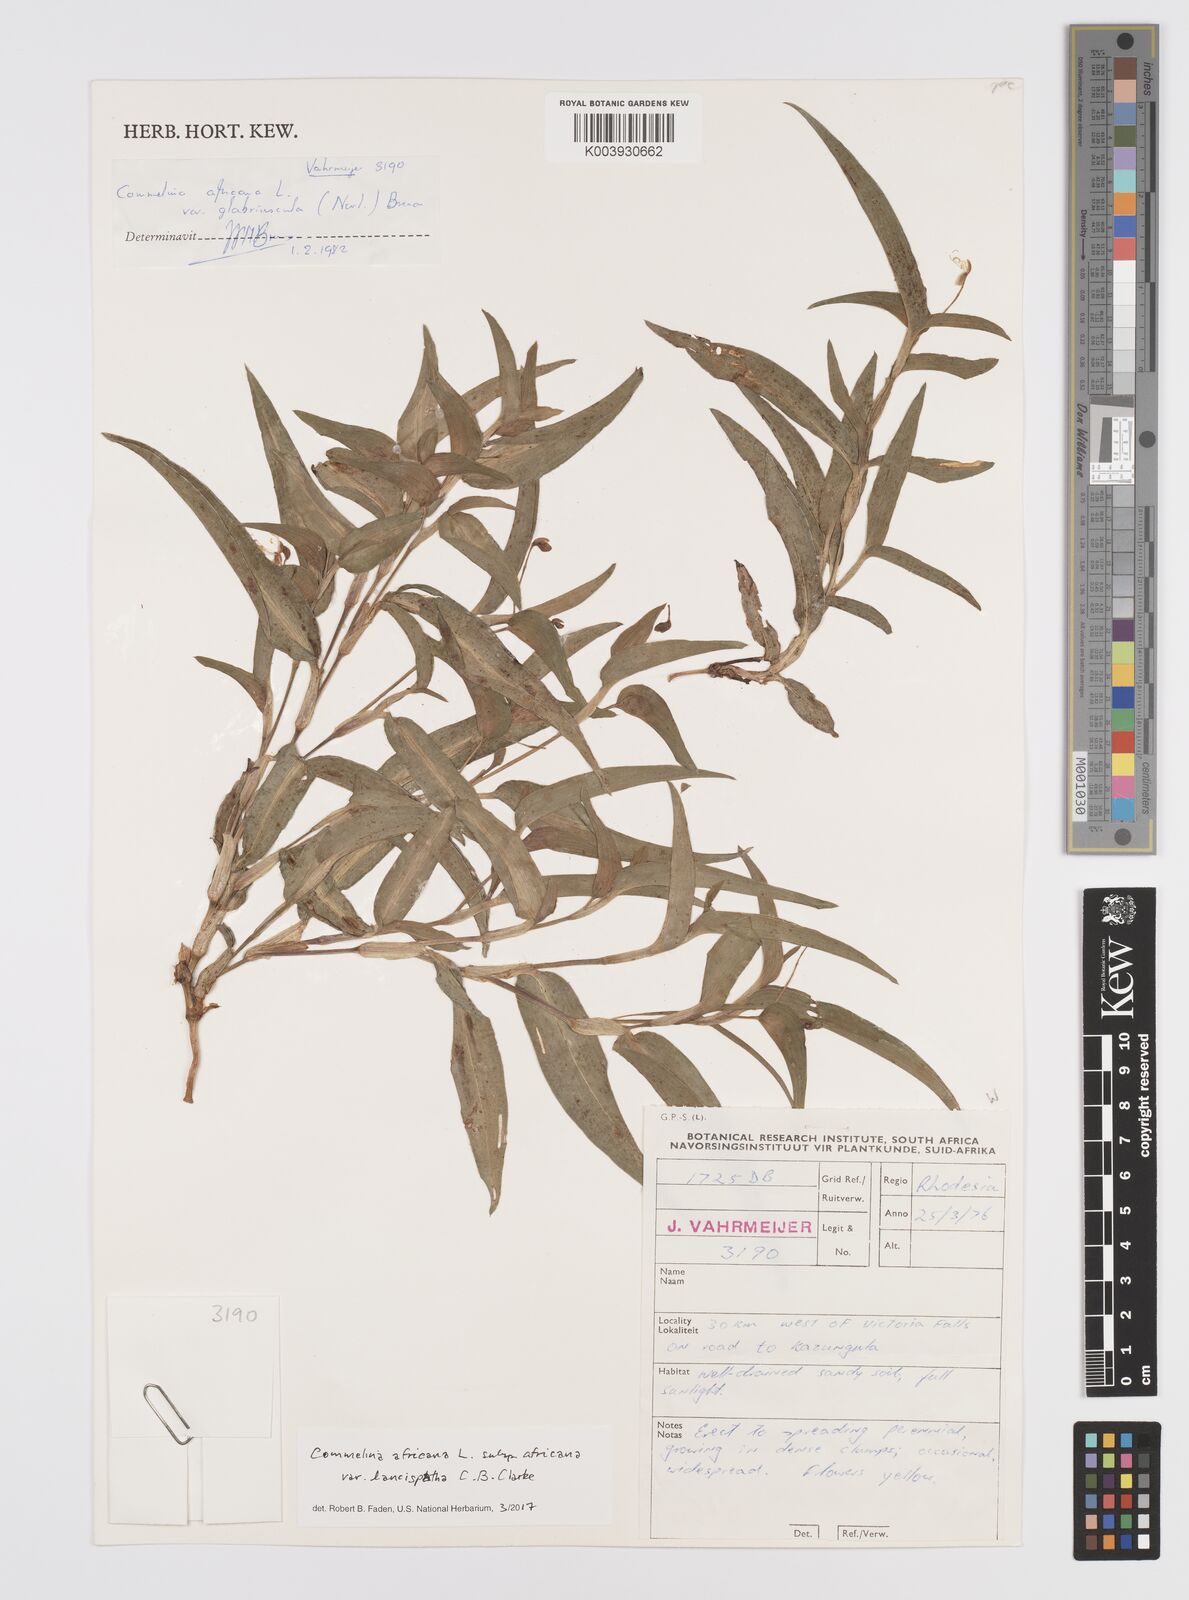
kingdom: Plantae
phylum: Tracheophyta
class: Liliopsida
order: Commelinales
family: Commelinaceae
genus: Commelina
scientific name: Commelina africana
